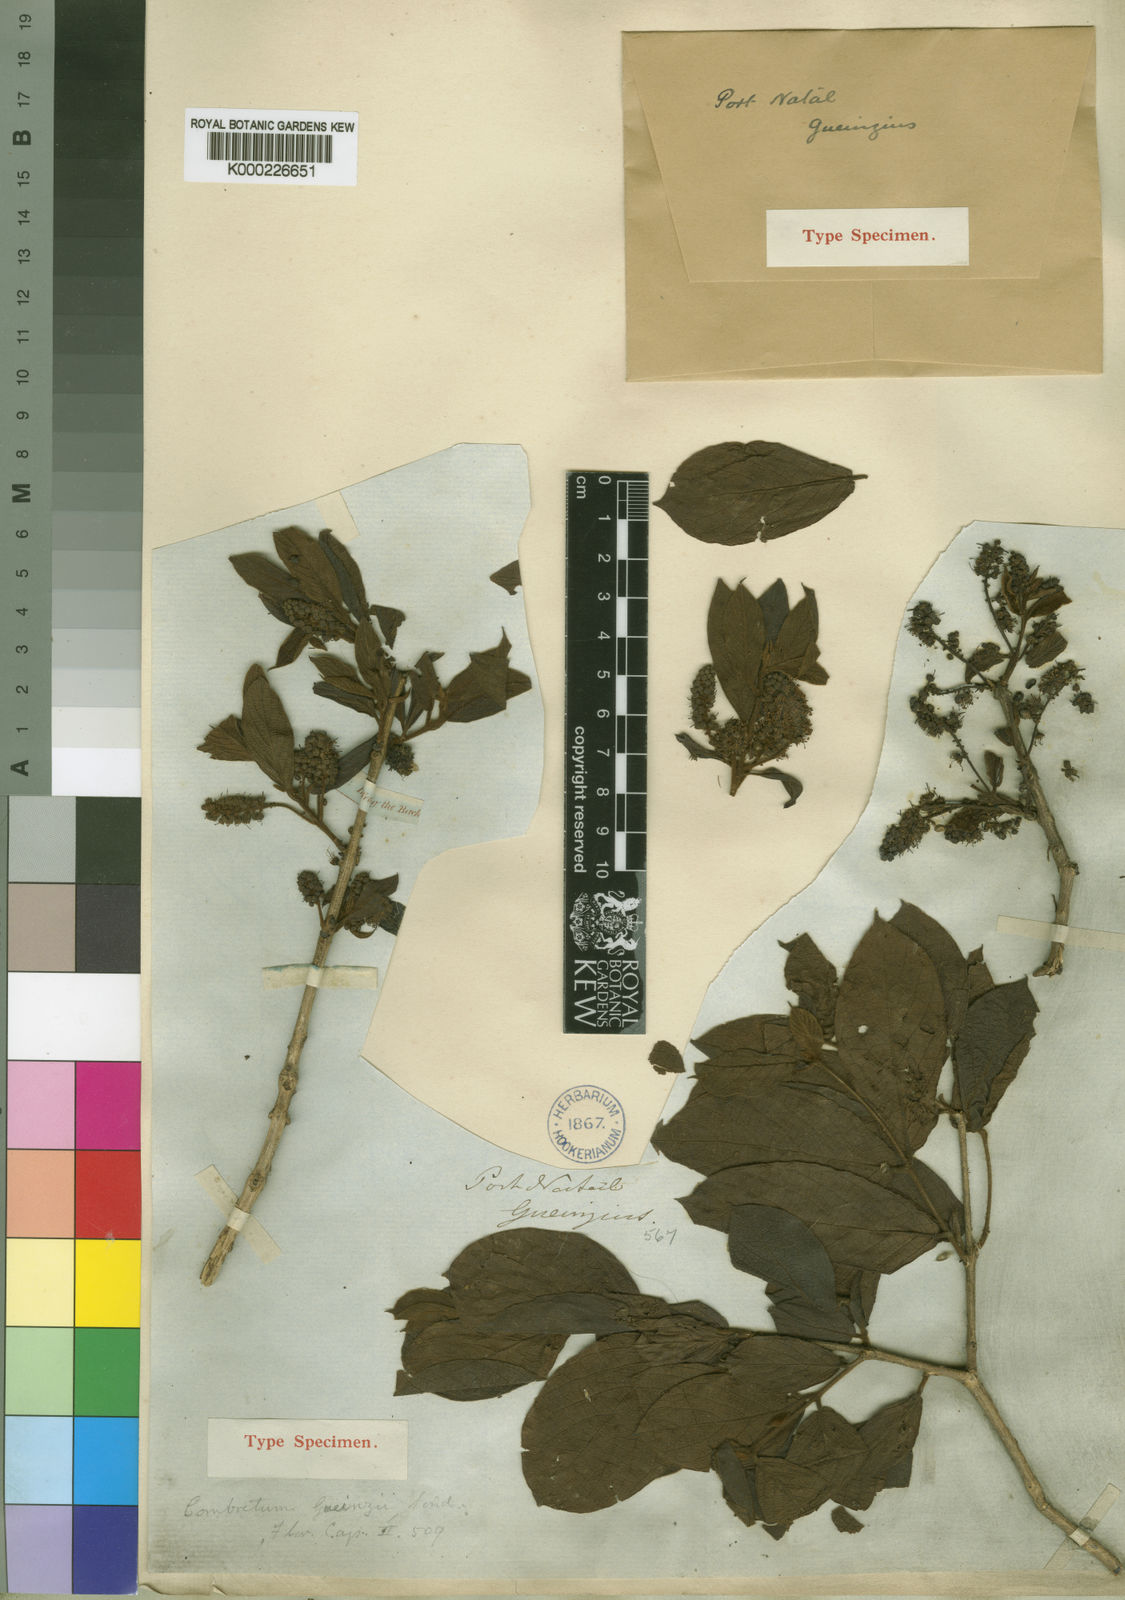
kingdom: Plantae
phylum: Tracheophyta
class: Magnoliopsida
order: Myrtales
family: Combretaceae
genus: Combretum
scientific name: Combretum molle
